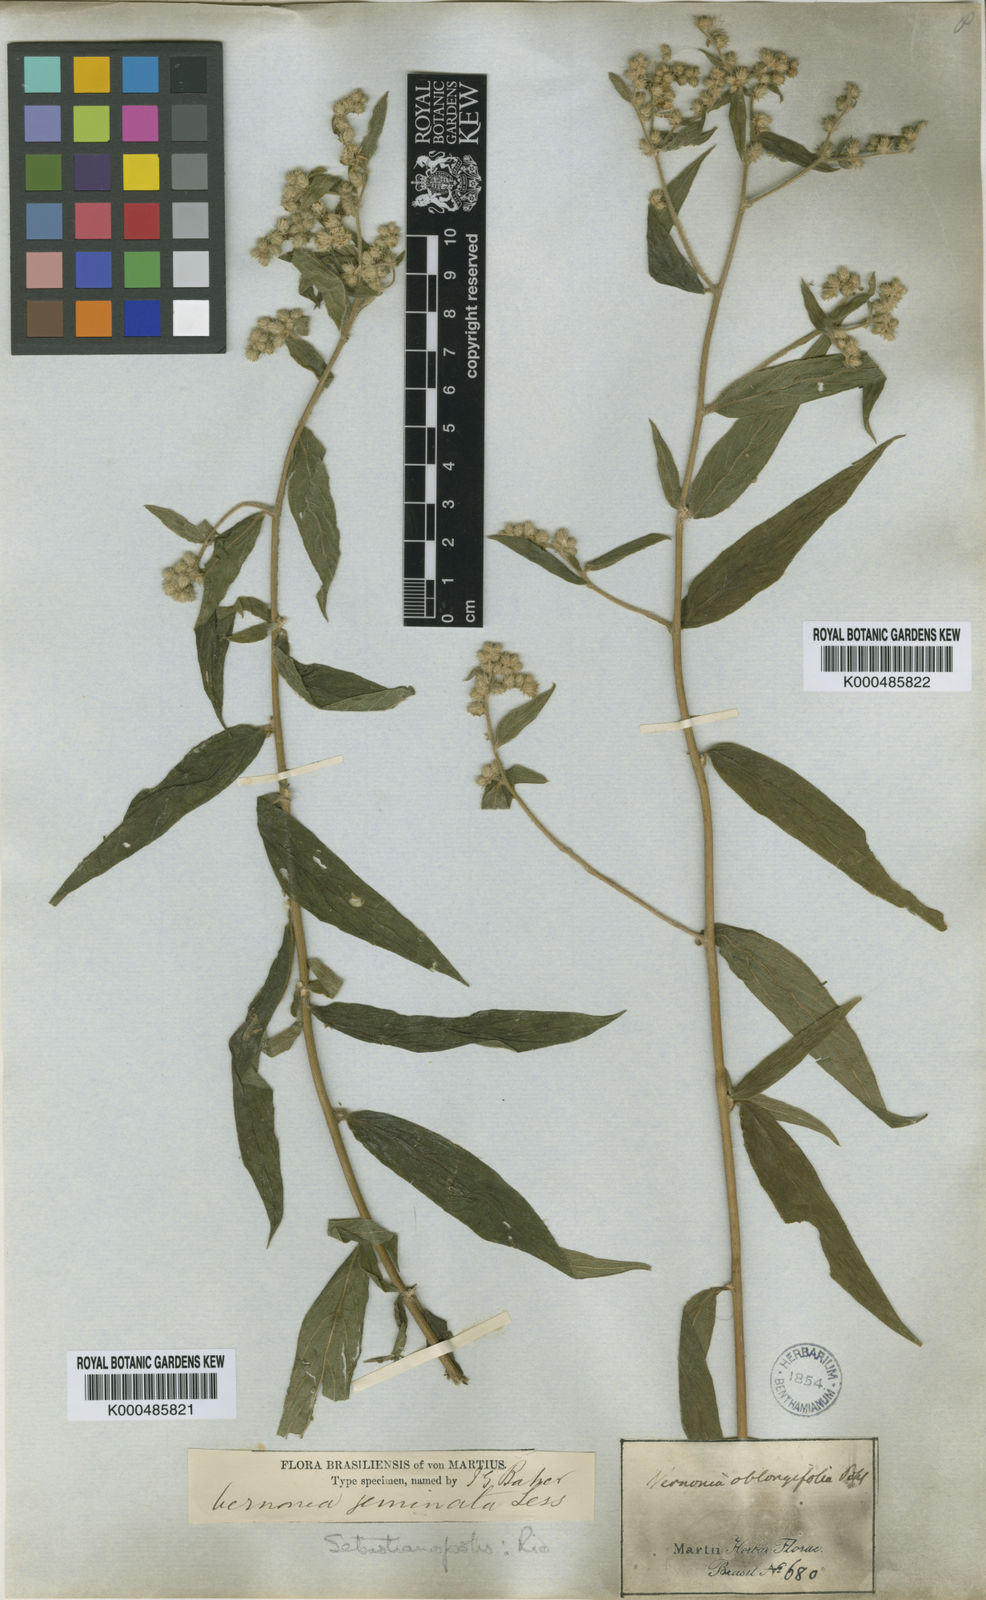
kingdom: Plantae
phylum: Tracheophyta
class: Magnoliopsida
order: Asterales
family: Asteraceae
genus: Vernonia
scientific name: Vernonia
